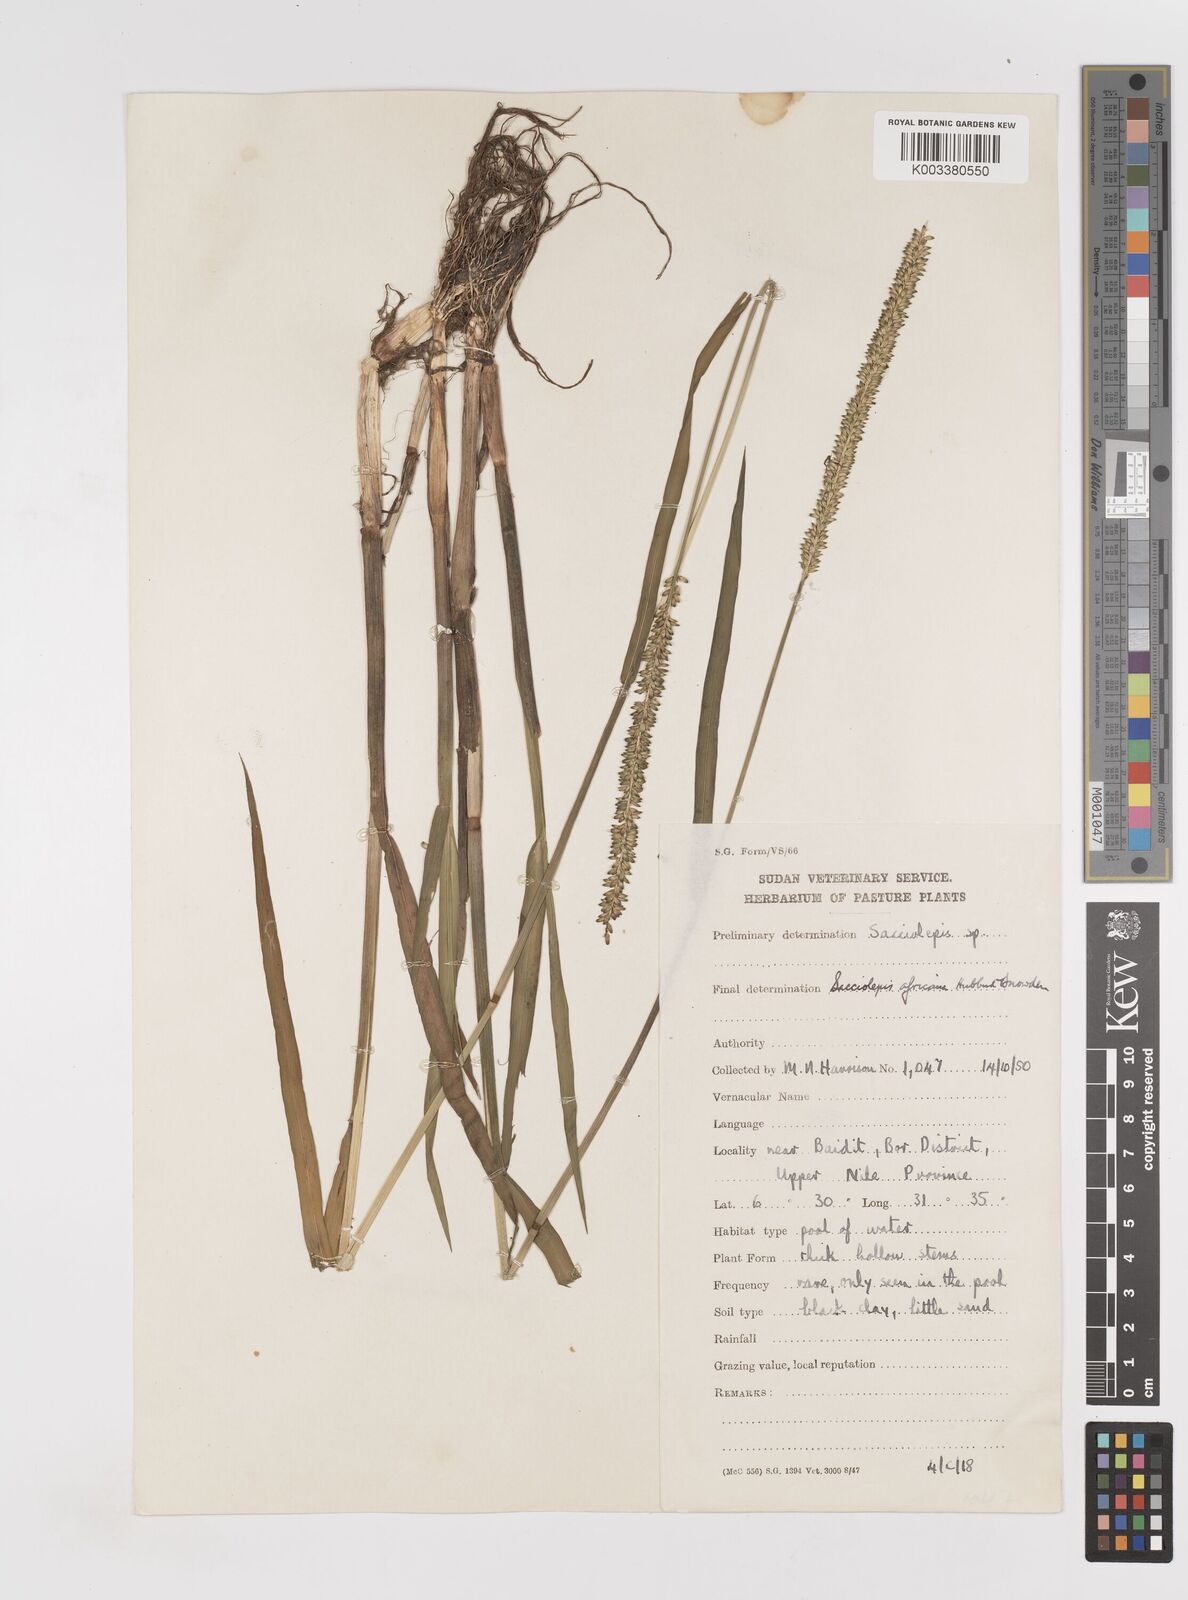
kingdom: Plantae
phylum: Tracheophyta
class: Liliopsida
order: Poales
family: Poaceae
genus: Sacciolepis
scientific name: Sacciolepis africana
